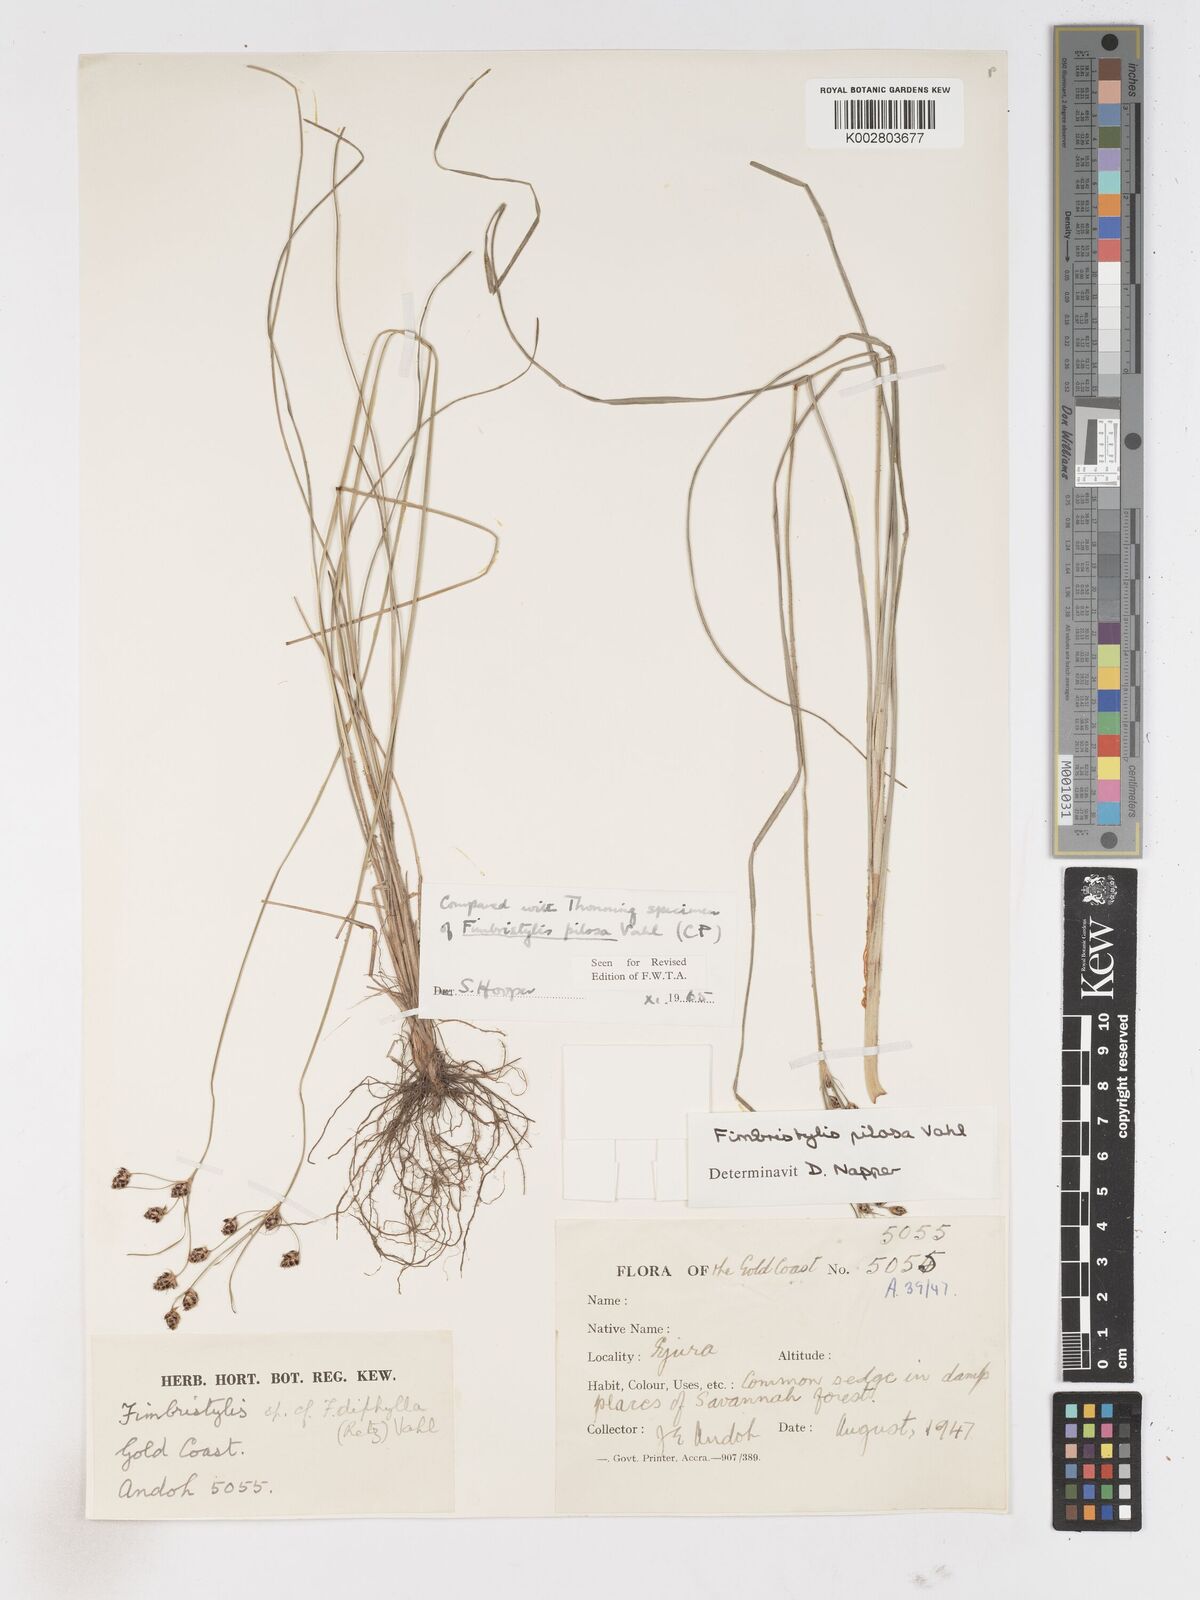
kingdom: Plantae
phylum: Tracheophyta
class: Liliopsida
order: Poales
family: Cyperaceae
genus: Fimbristylis
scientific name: Fimbristylis pilosa
